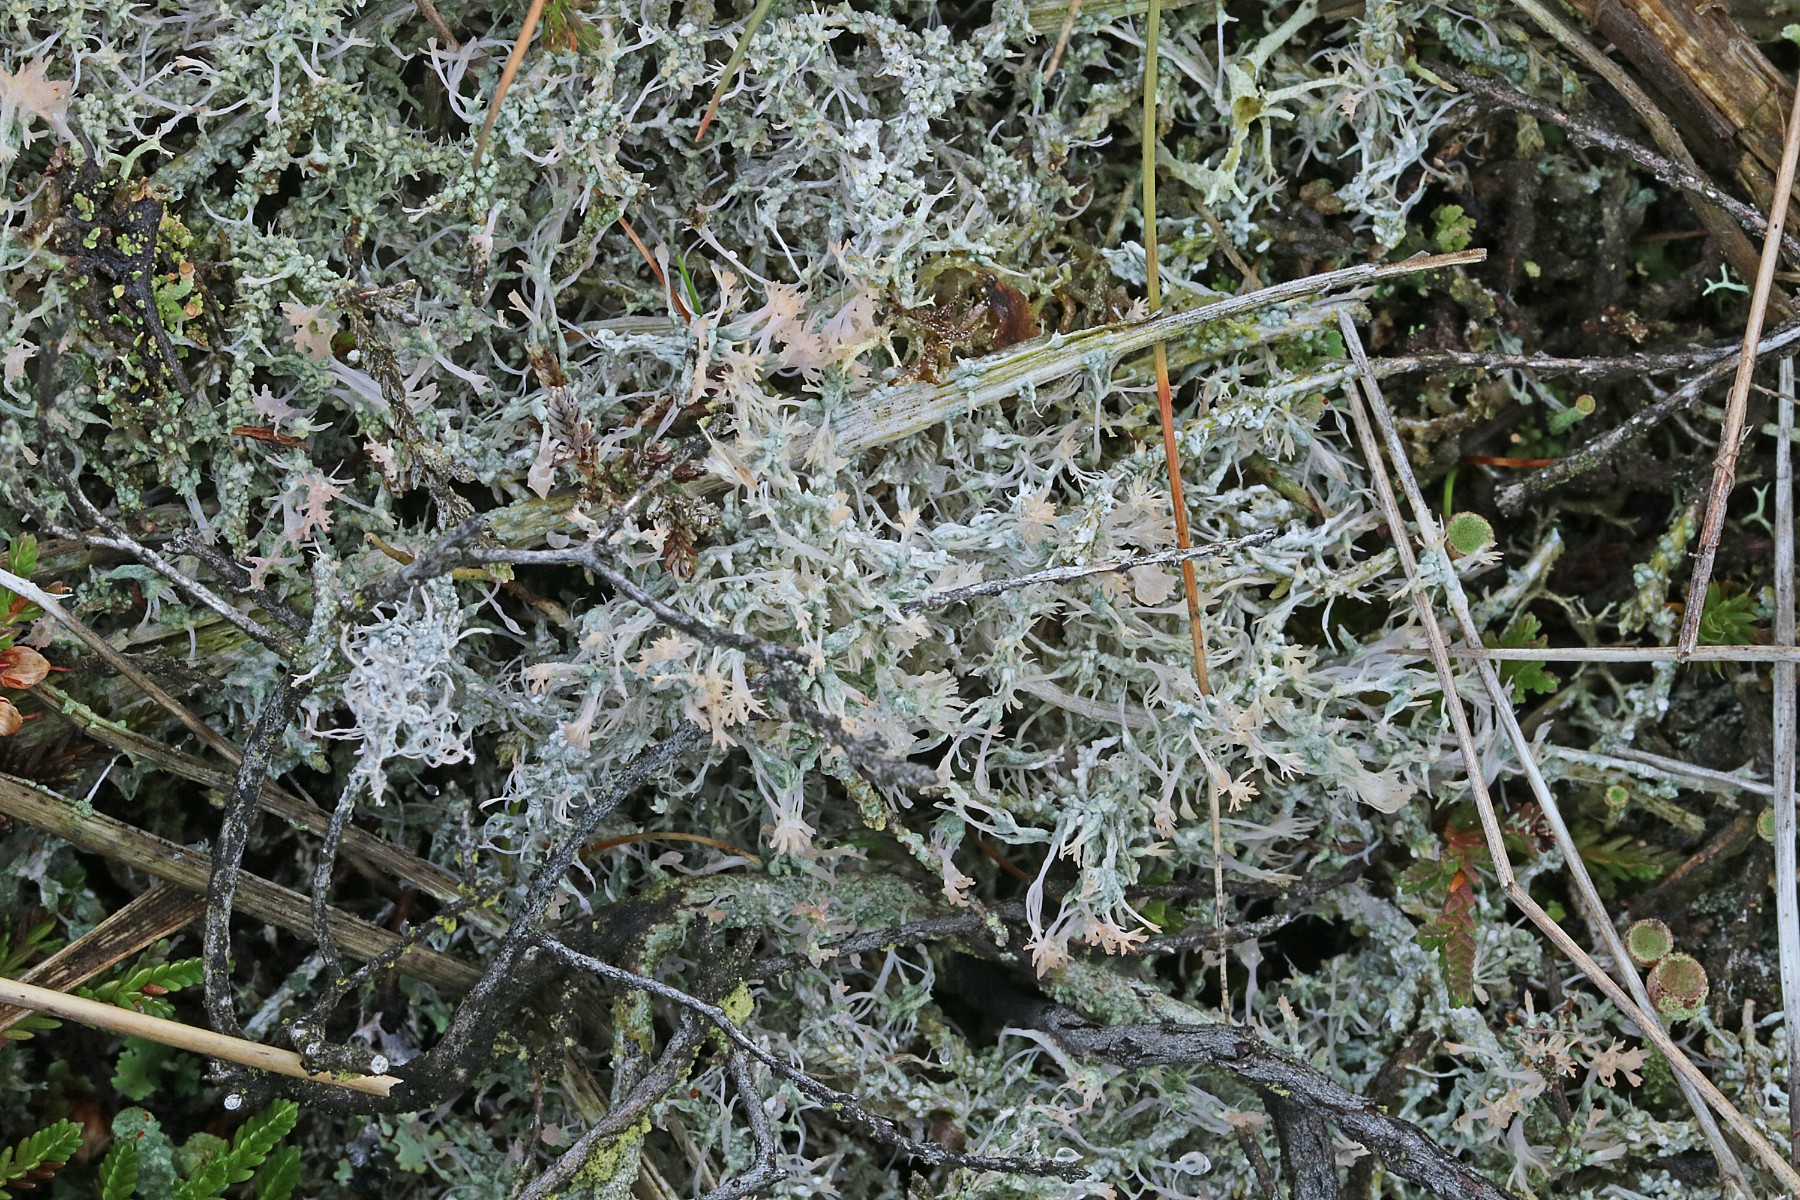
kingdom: Fungi
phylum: Ascomycota
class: Lecanoromycetes
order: Pertusariales
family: Ochrolechiaceae
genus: Ochrolechia
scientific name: Ochrolechia frigida
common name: fjeld-blegskivelav
